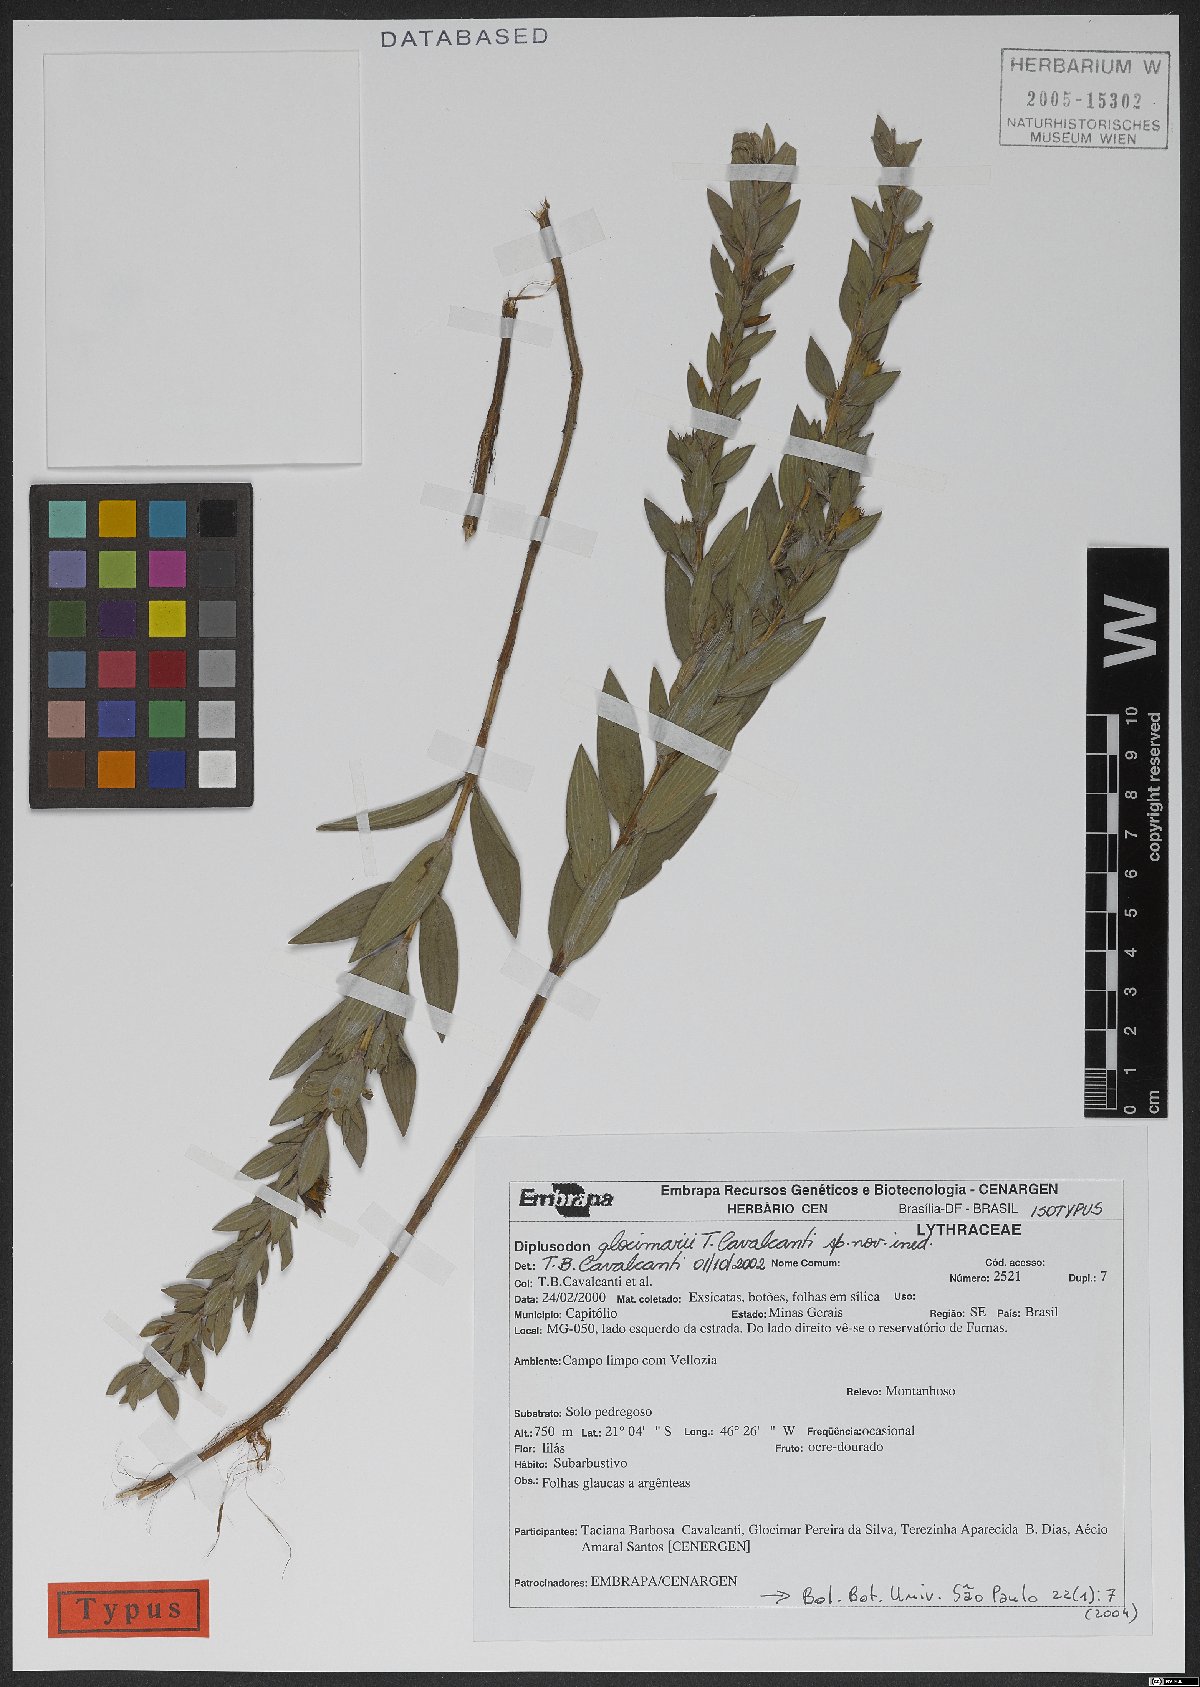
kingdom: Plantae
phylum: Tracheophyta
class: Magnoliopsida
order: Myrtales
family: Lythraceae
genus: Diplusodon
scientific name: Diplusodon glocimarii
